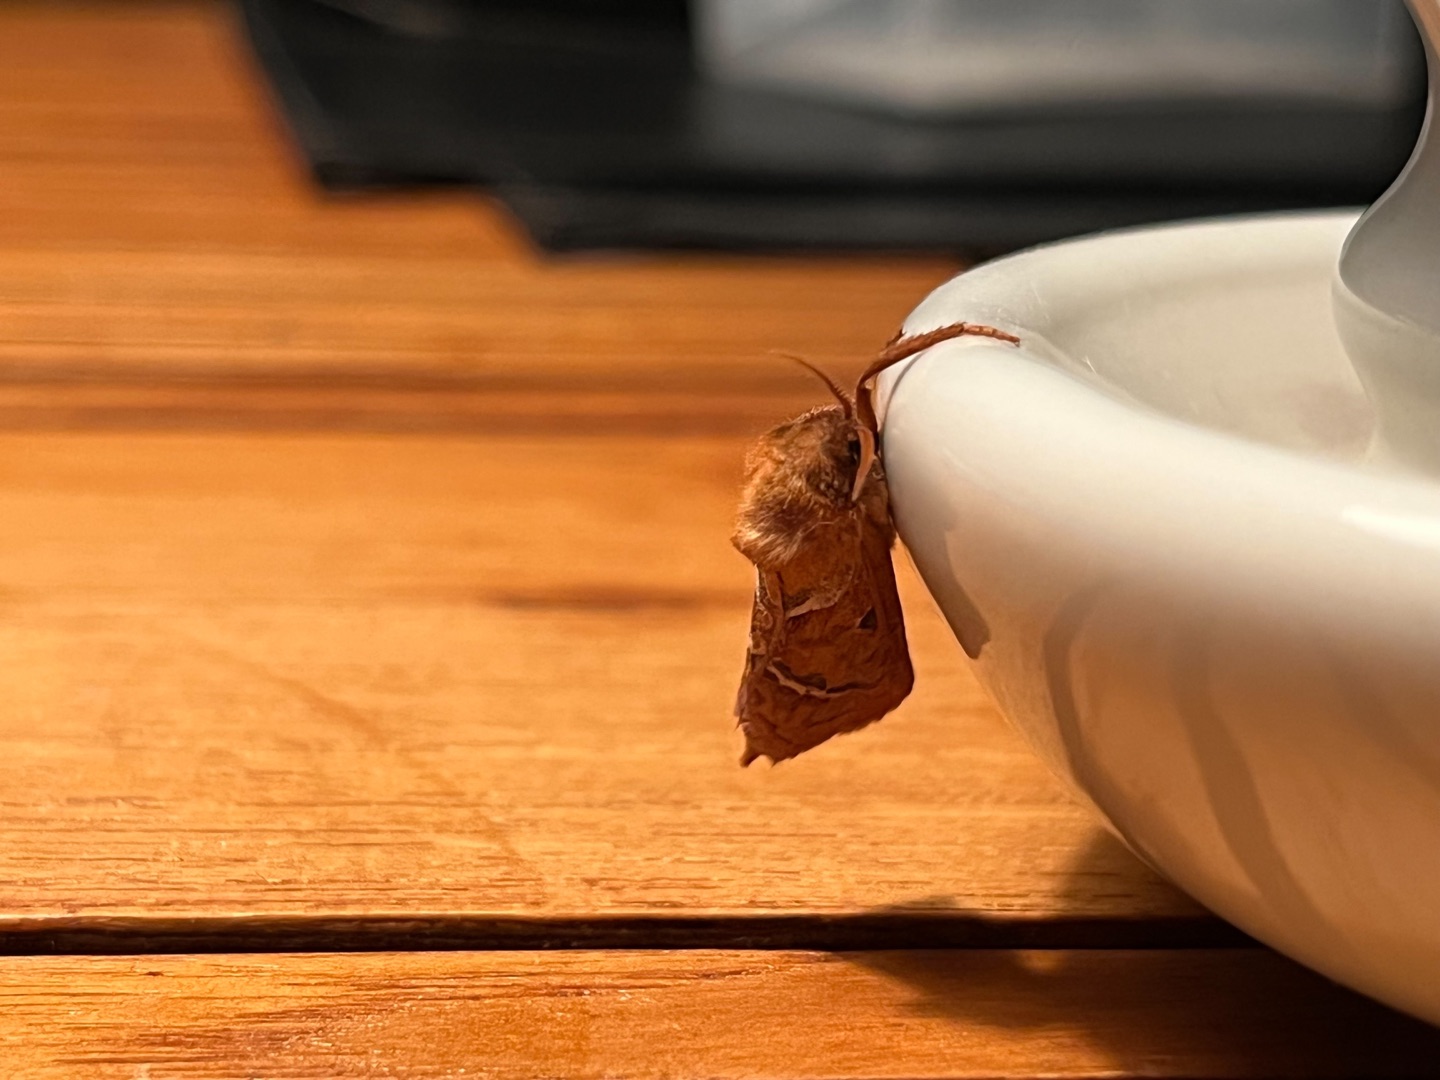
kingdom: Animalia
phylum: Arthropoda
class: Insecta
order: Lepidoptera
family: Hepialidae
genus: Triodia
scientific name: Triodia sylvina
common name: Skræpperodæder
